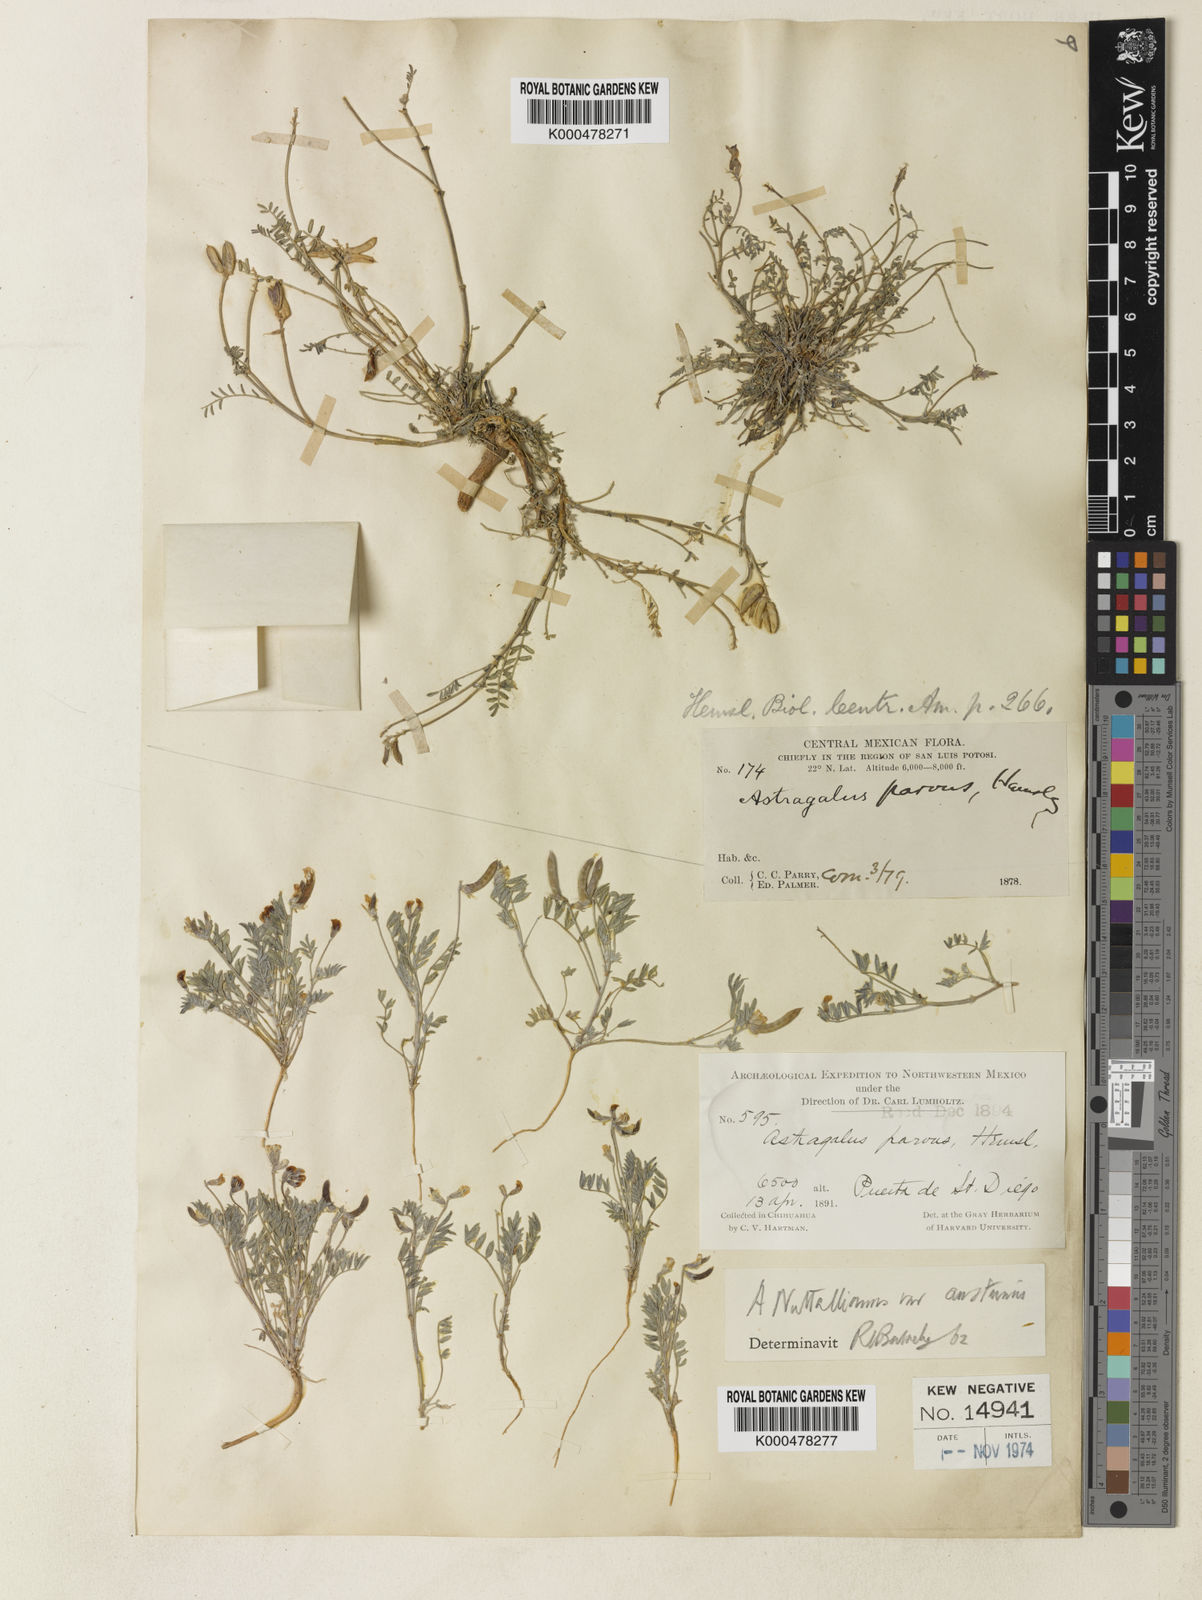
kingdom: Plantae
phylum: Tracheophyta
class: Magnoliopsida
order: Fabales
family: Fabaceae
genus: Astragalus
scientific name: Astragalus parvus
